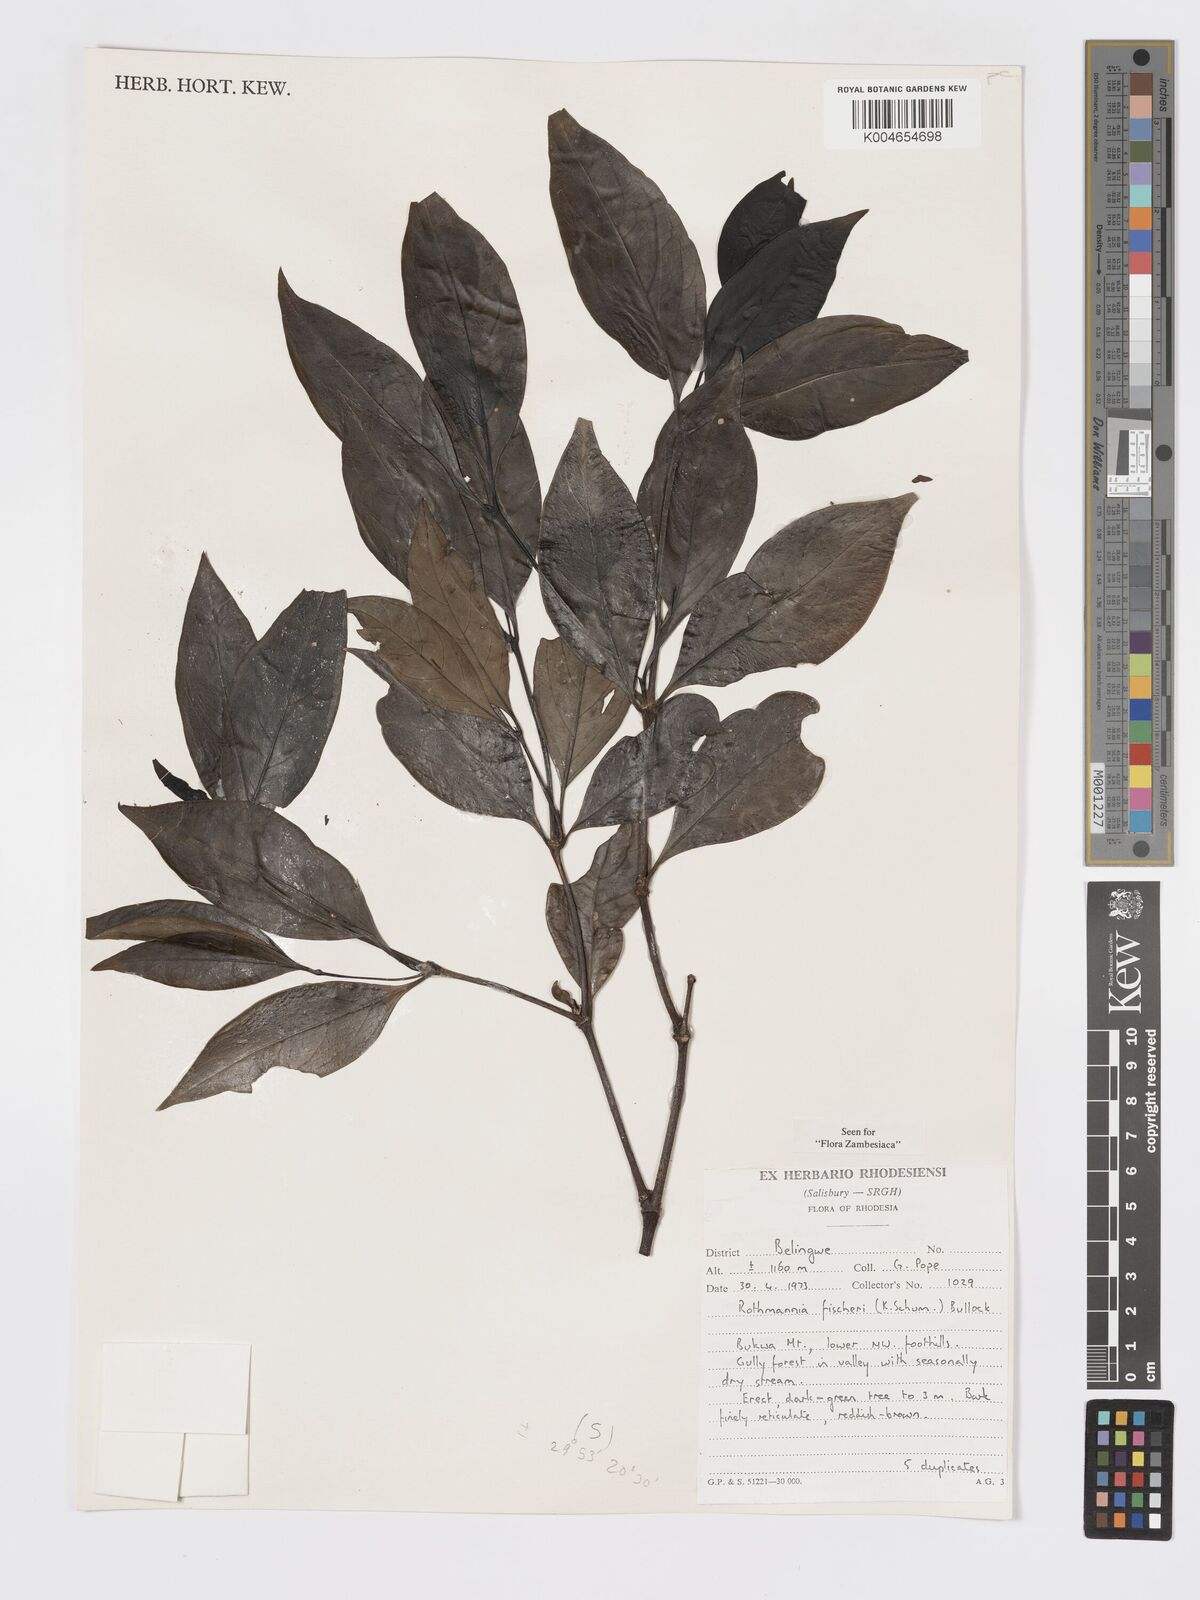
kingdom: Plantae
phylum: Tracheophyta
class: Magnoliopsida
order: Gentianales
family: Rubiaceae
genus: Rothmannia
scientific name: Rothmannia fischeri
